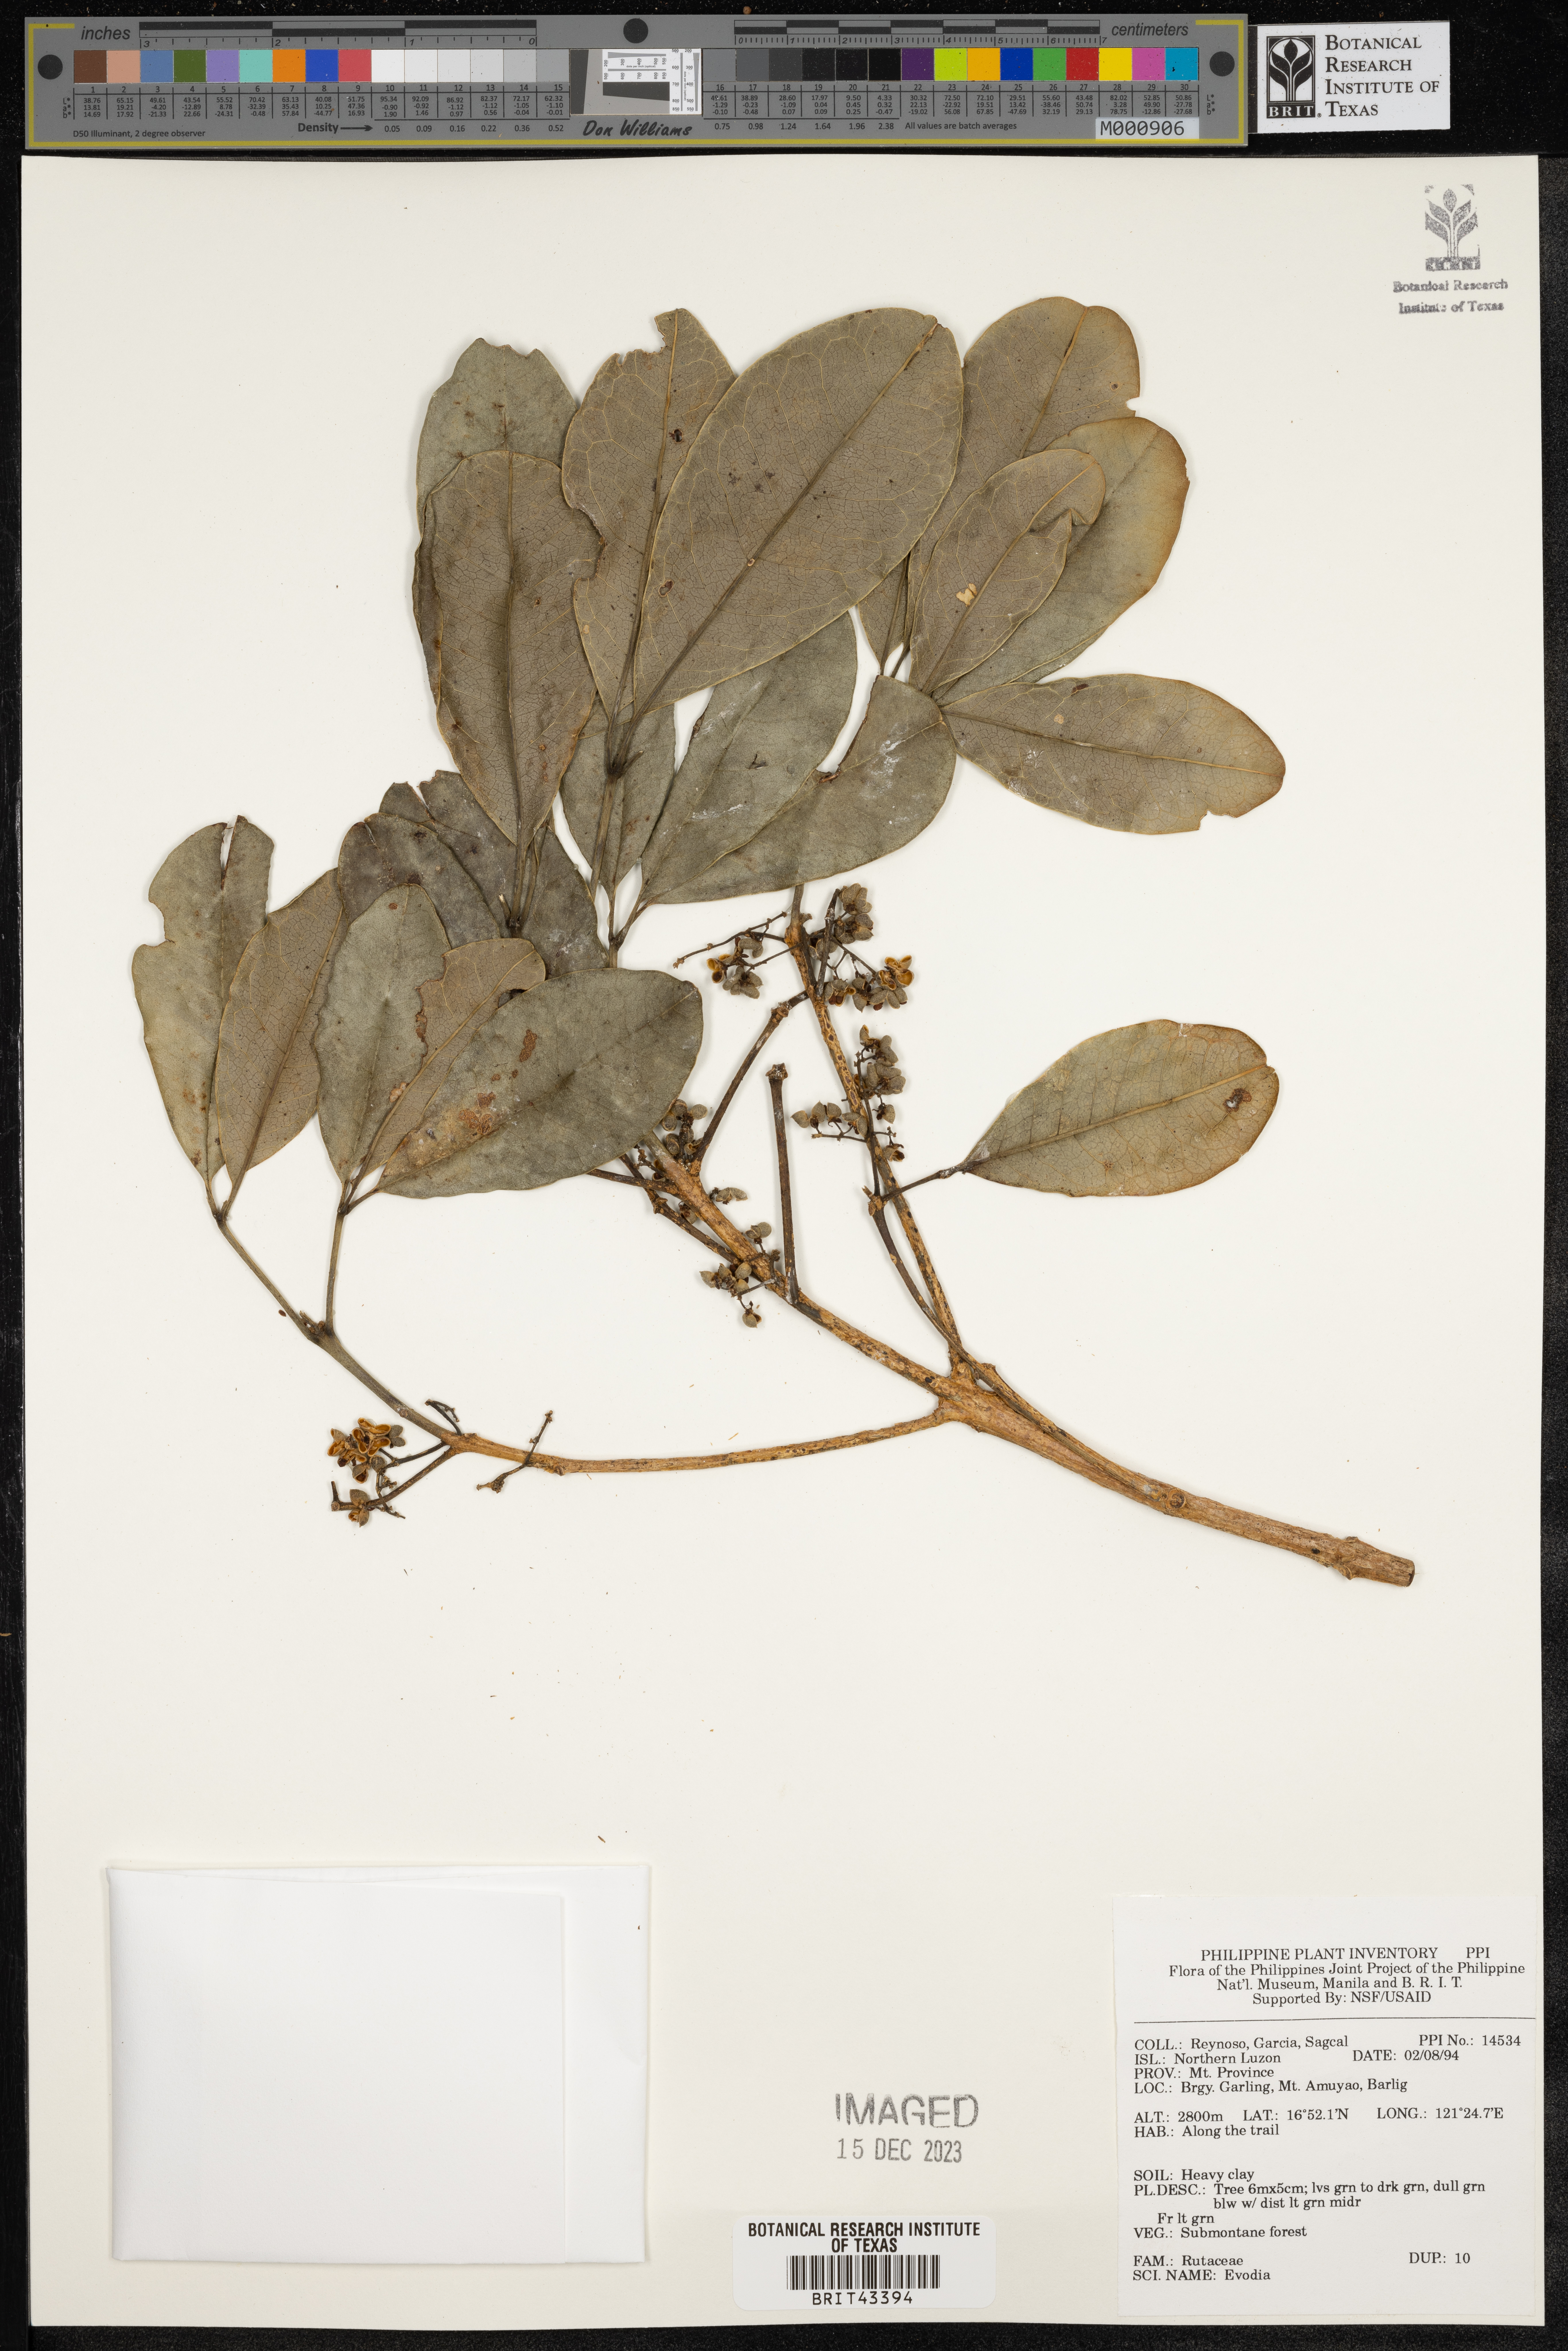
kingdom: Plantae
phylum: Tracheophyta
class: Magnoliopsida
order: Sapindales
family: Rutaceae
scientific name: Rutaceae
